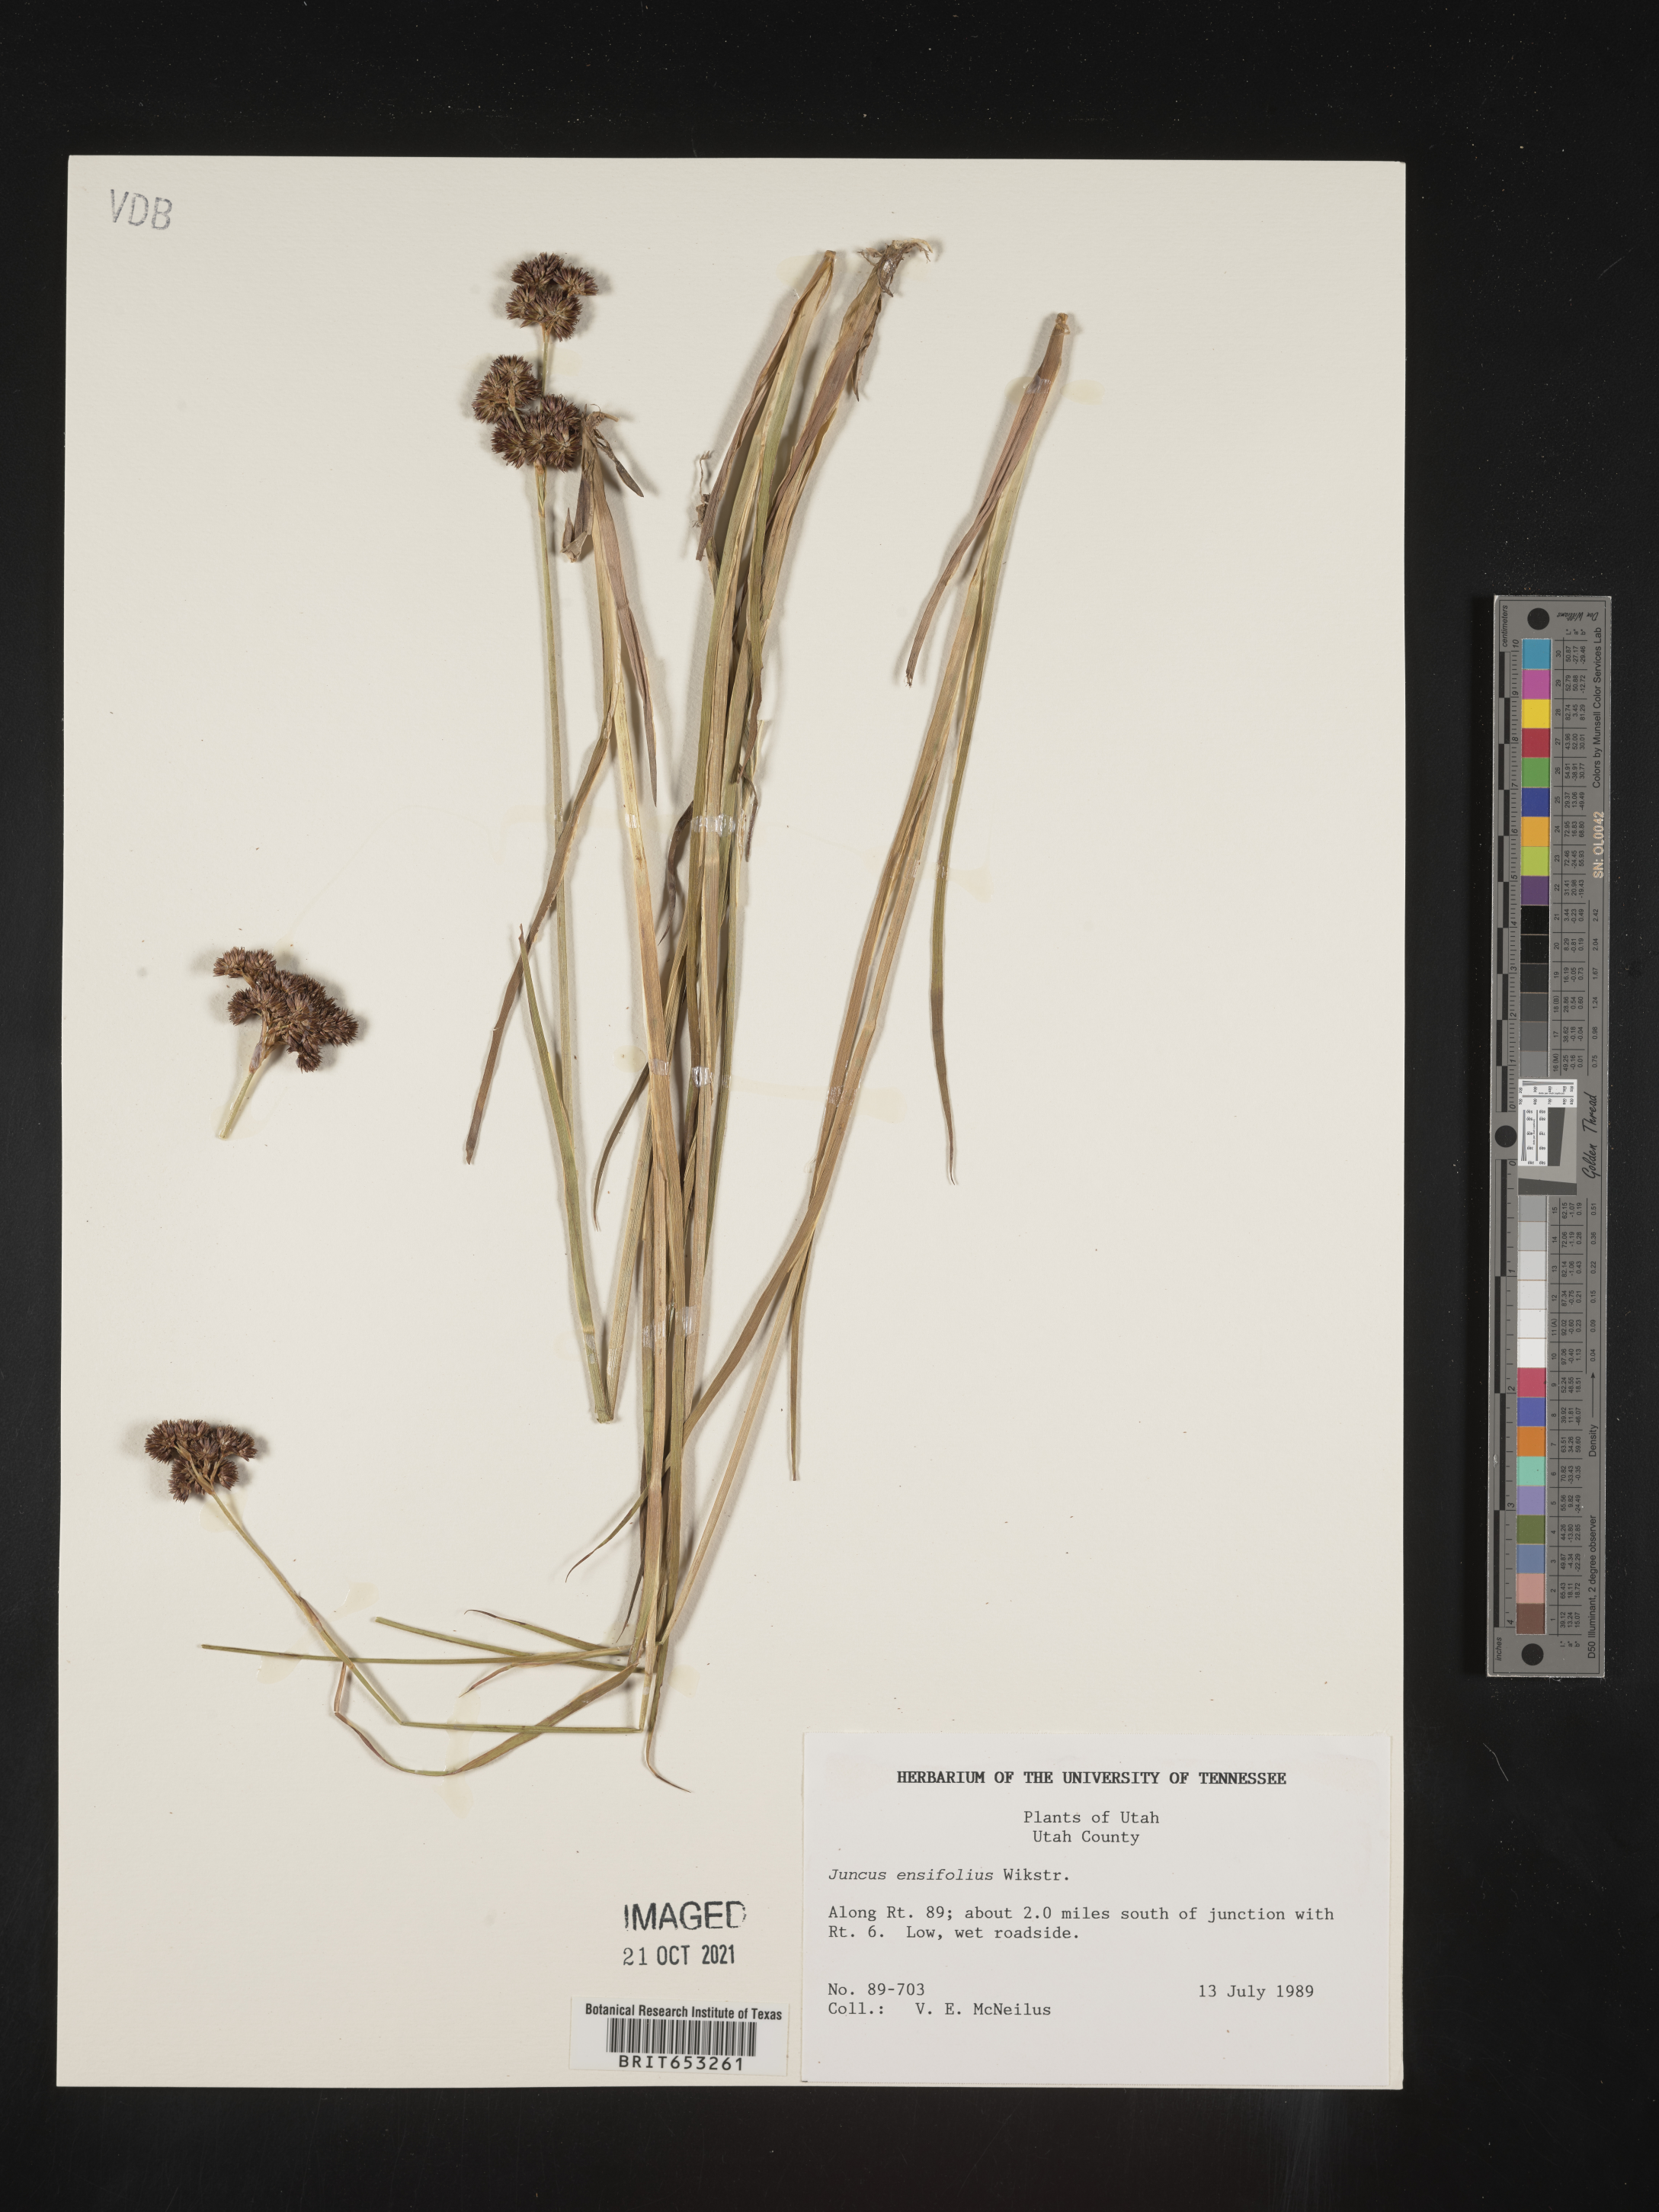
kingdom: Plantae
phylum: Tracheophyta
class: Liliopsida
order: Poales
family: Juncaceae
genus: Juncus
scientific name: Juncus ensifolius
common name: Sword-leaved rush
